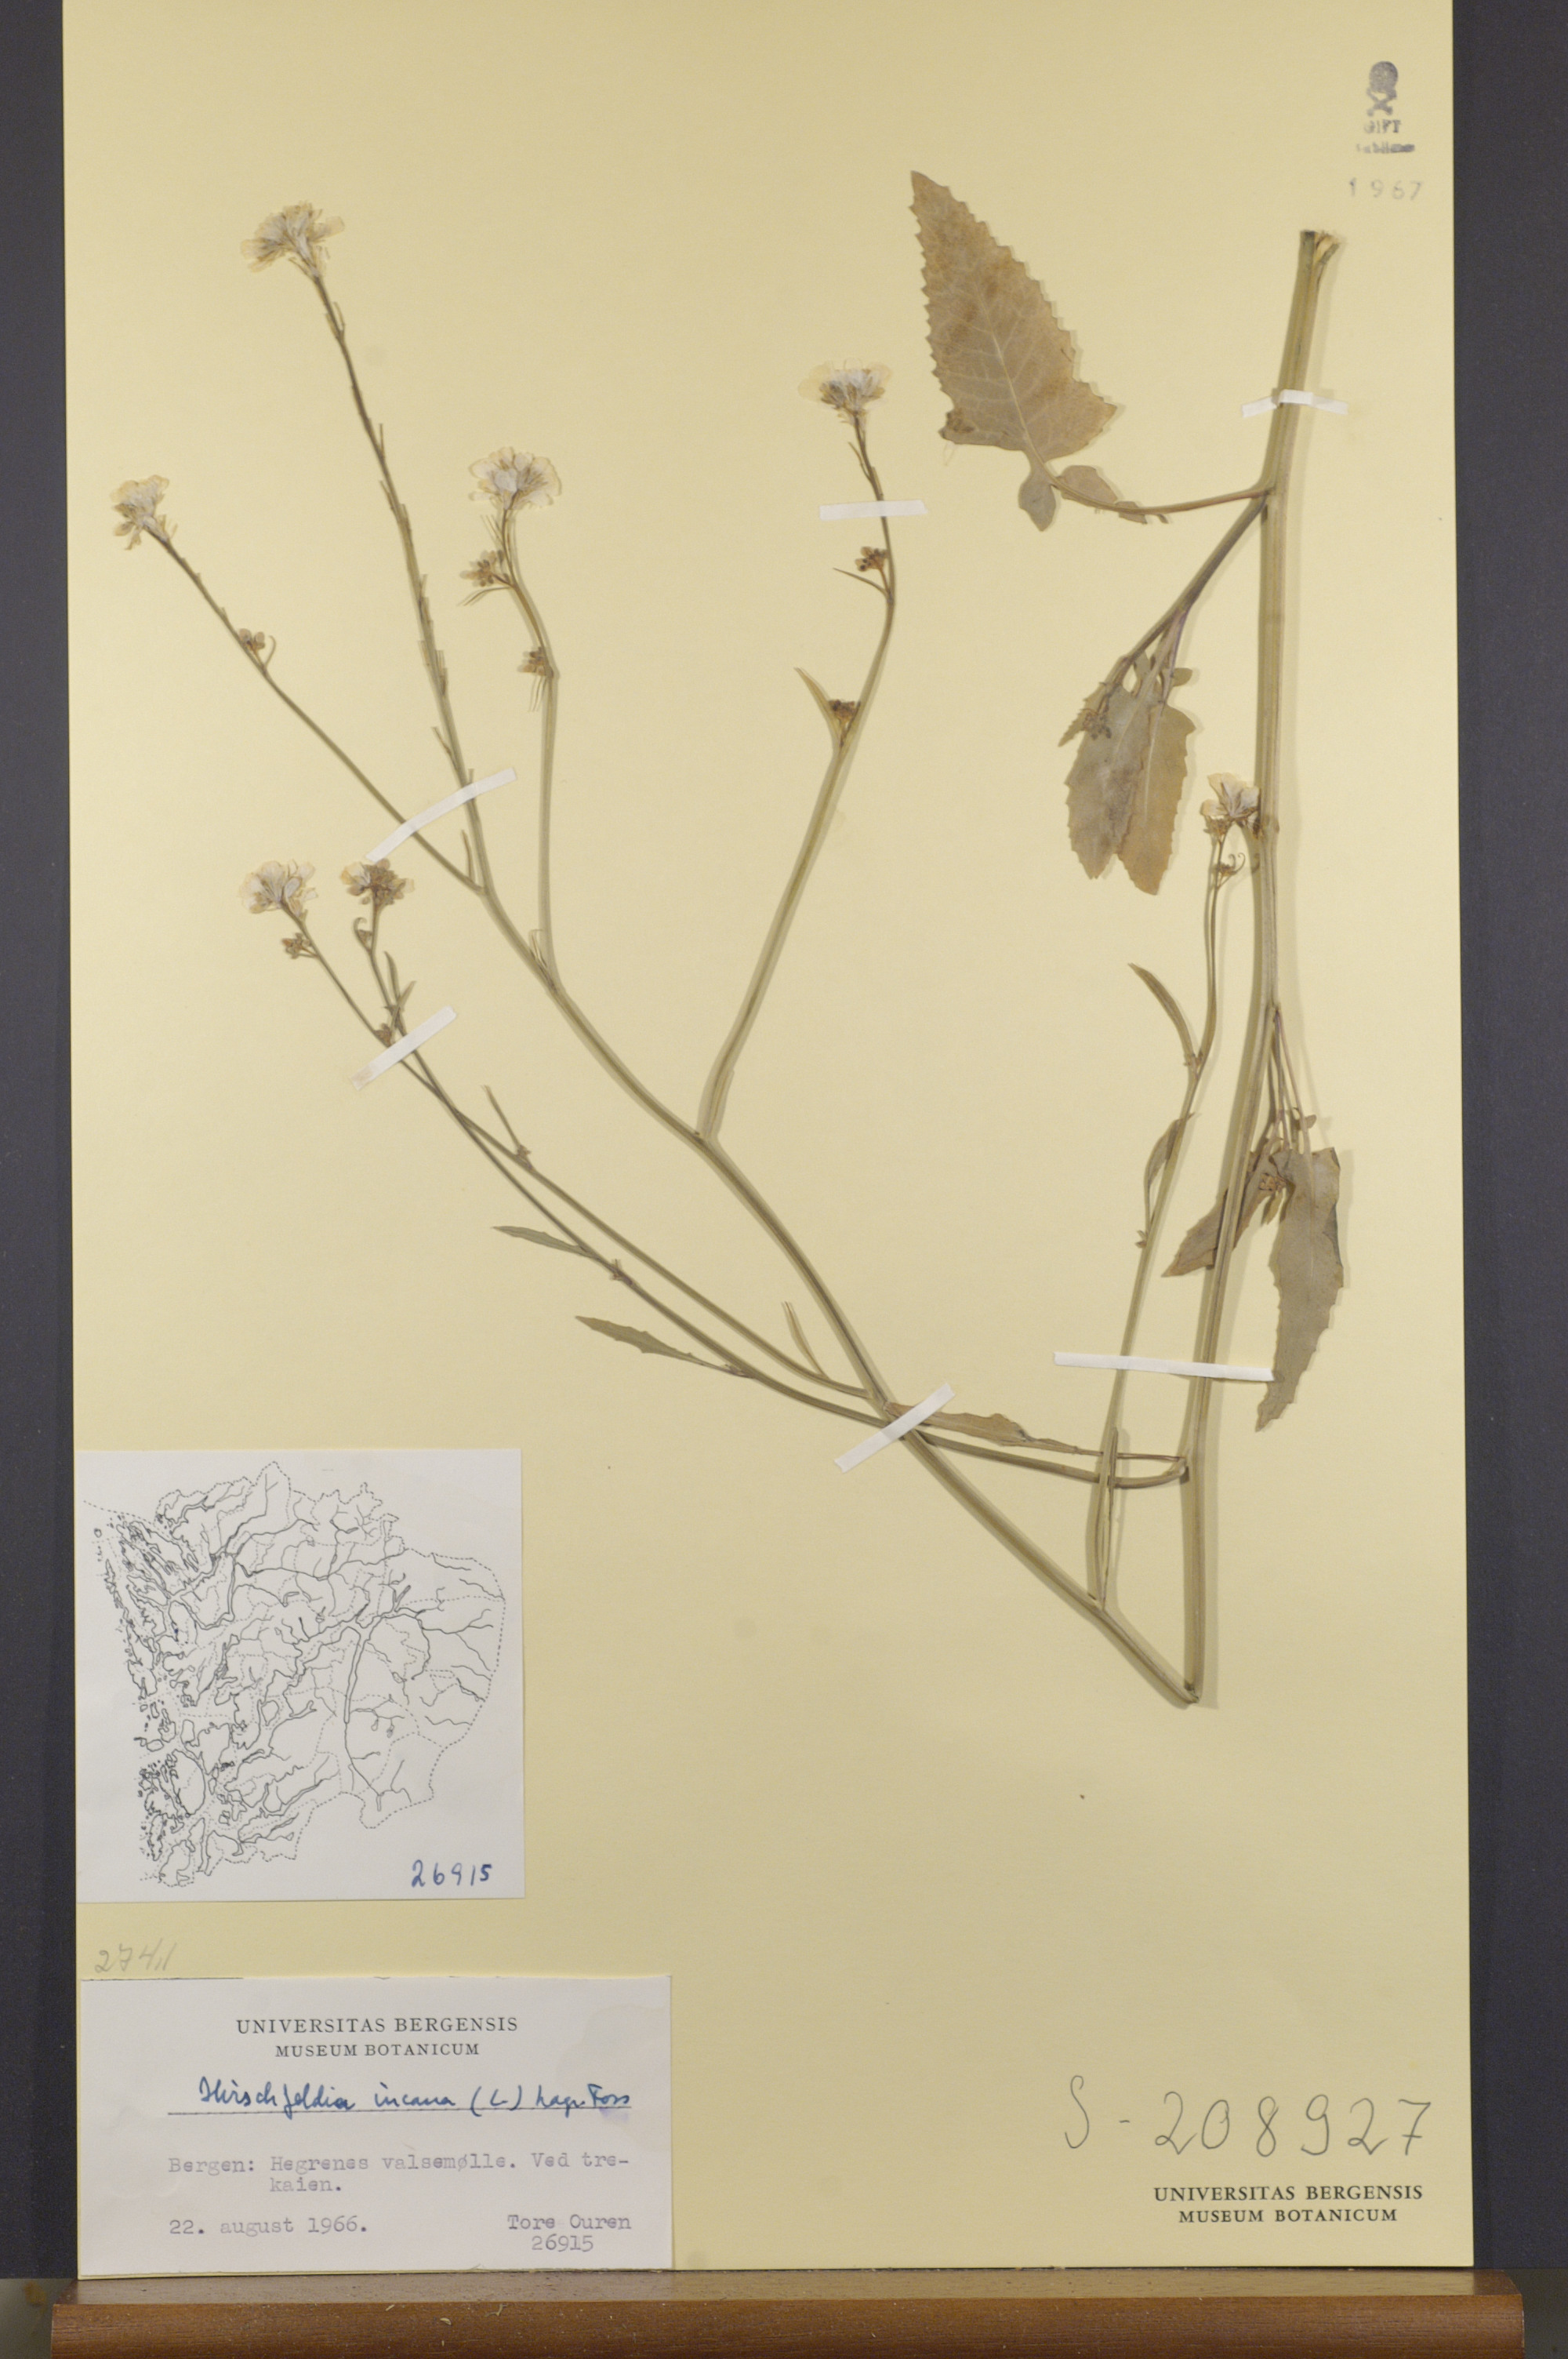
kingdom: Plantae
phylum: Tracheophyta
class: Magnoliopsida
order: Brassicales
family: Brassicaceae
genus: Hirschfeldia
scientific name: Hirschfeldia incana
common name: Hoary mustard
